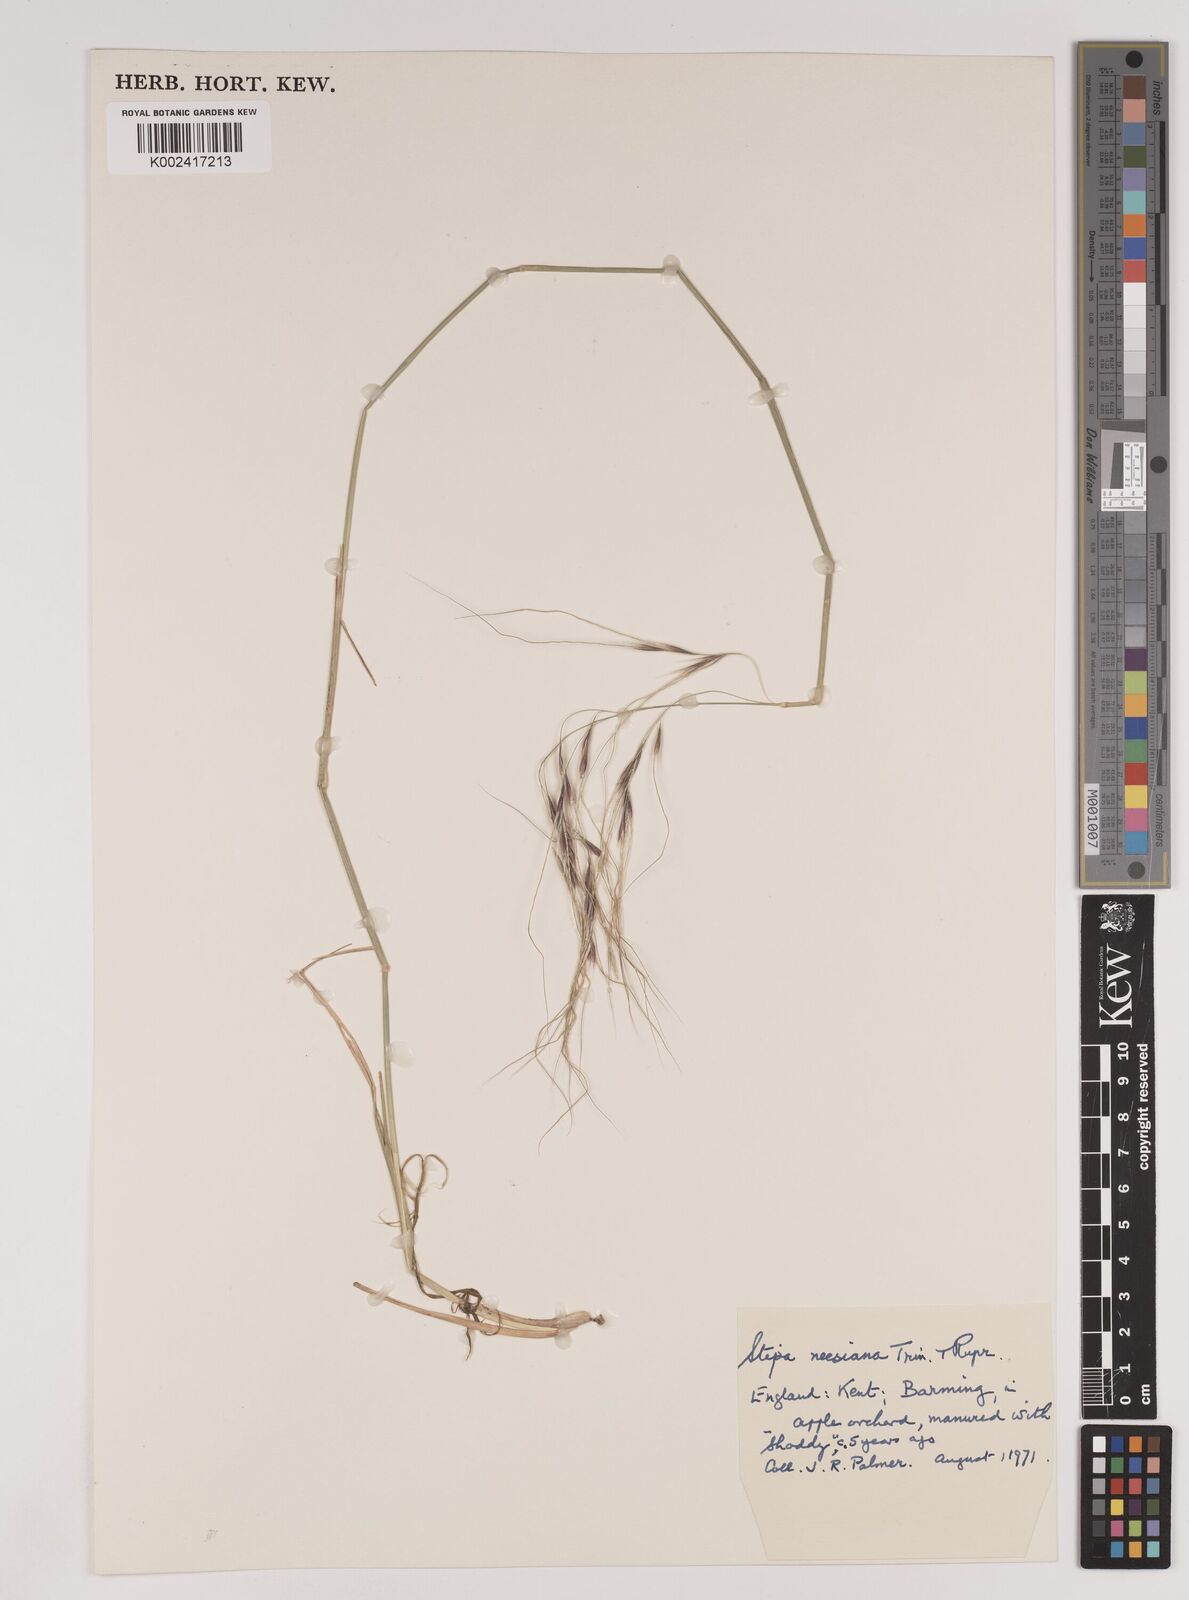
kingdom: Plantae
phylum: Tracheophyta
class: Liliopsida
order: Poales
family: Poaceae
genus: Nassella
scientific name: Nassella neesiana
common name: American needle-grass
